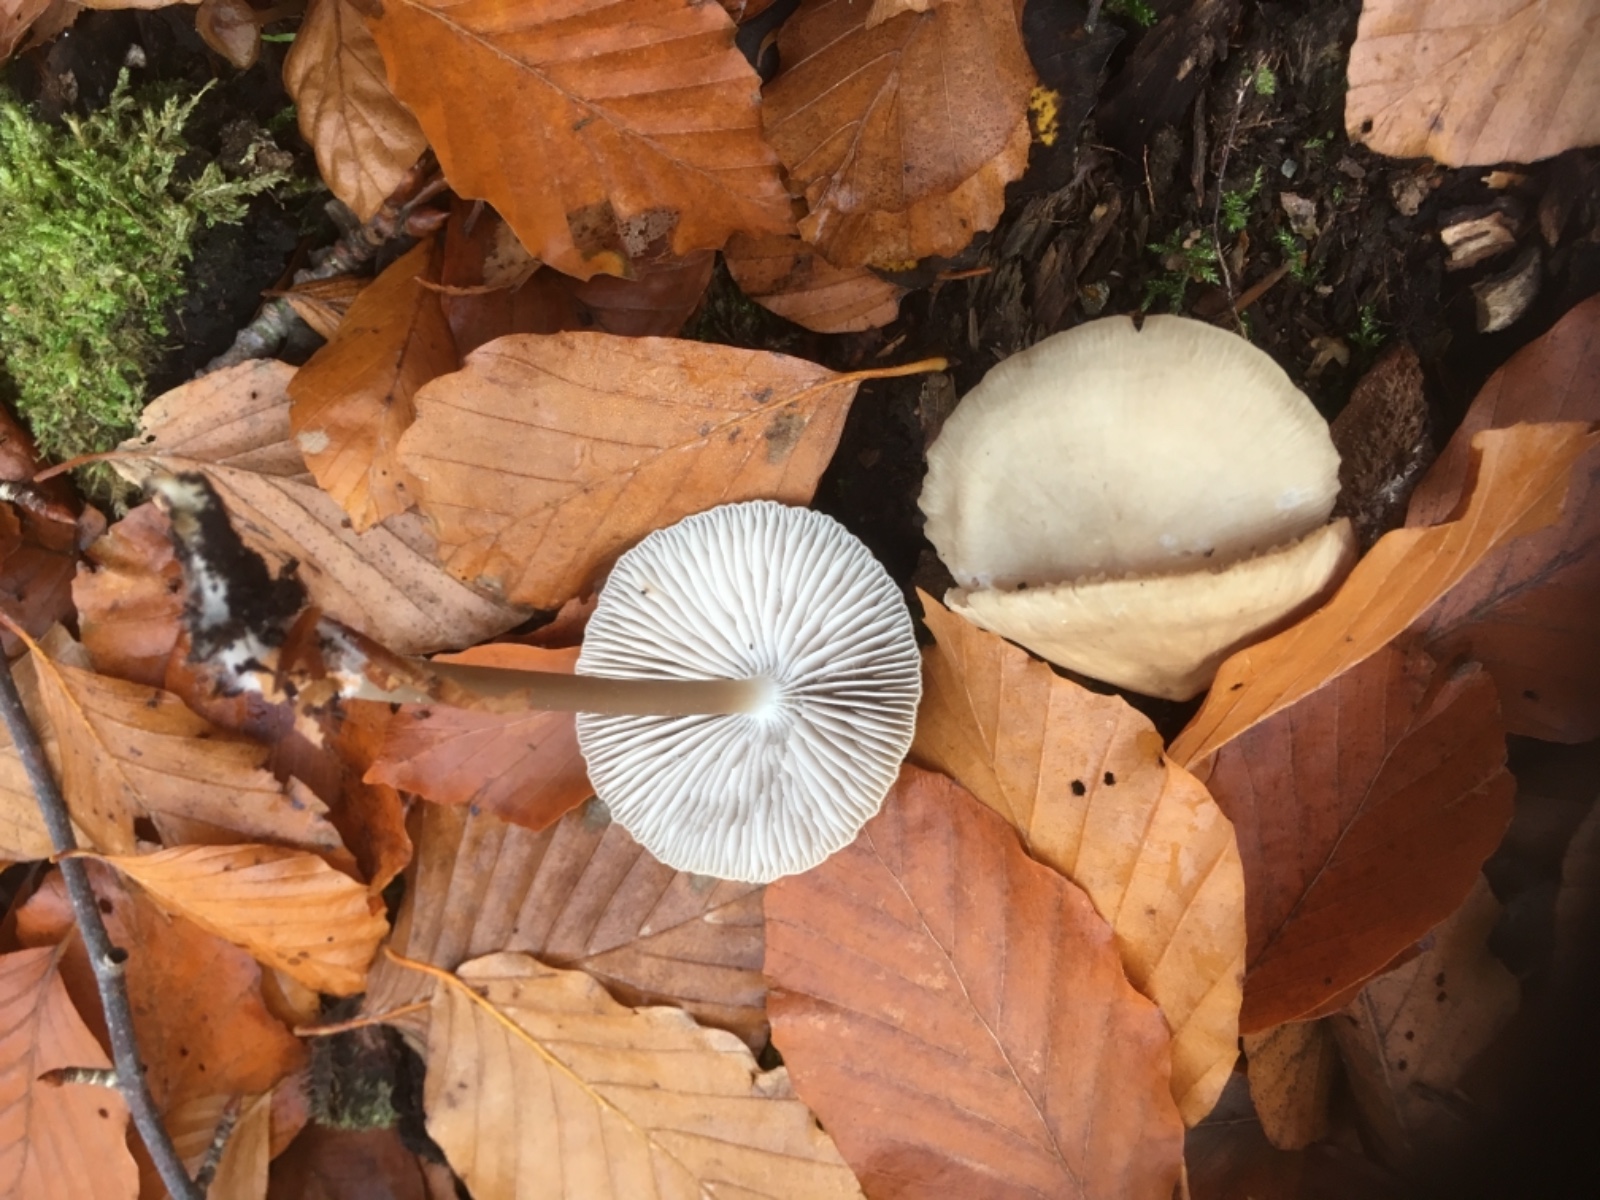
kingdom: Fungi
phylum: Basidiomycota
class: Agaricomycetes
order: Agaricales
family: Mycenaceae
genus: Mycena
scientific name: Mycena galericulata
